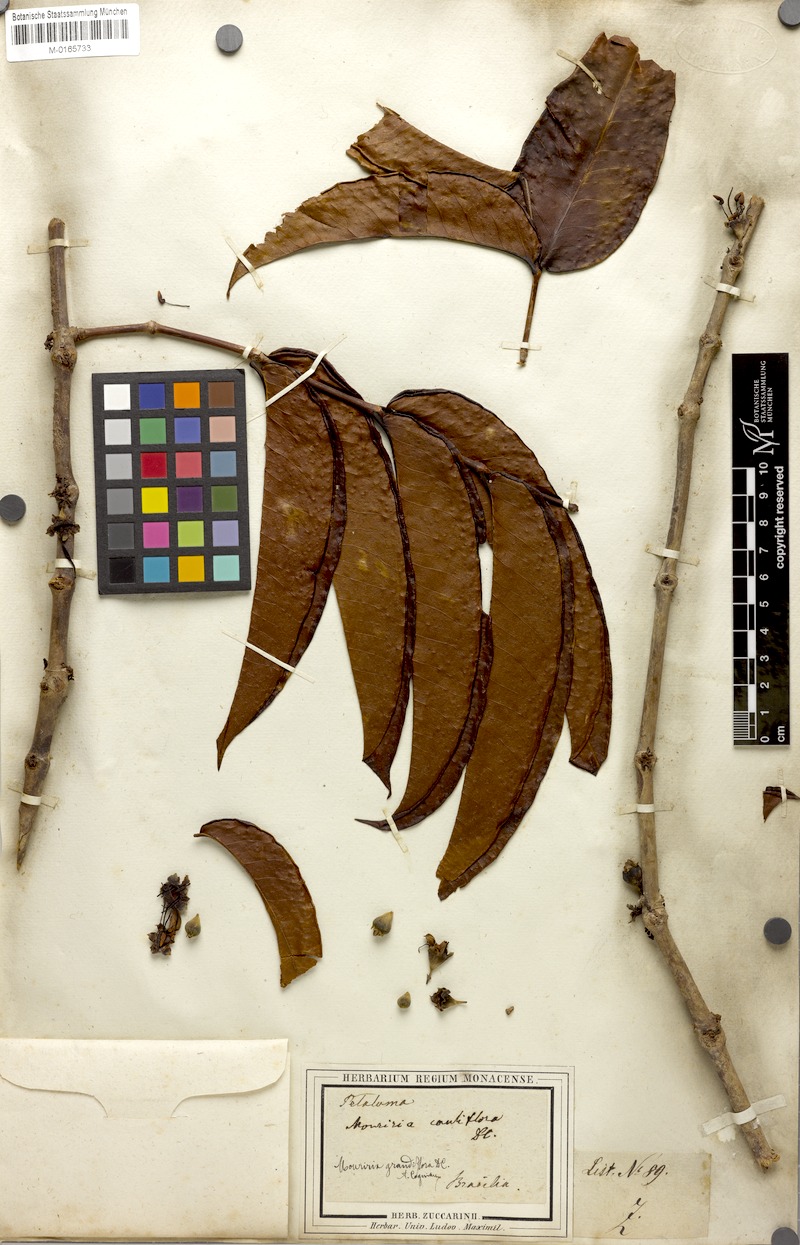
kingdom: Plantae
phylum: Tracheophyta
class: Magnoliopsida
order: Myrtales
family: Melastomataceae
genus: Mouriri
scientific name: Mouriri grandiflora
